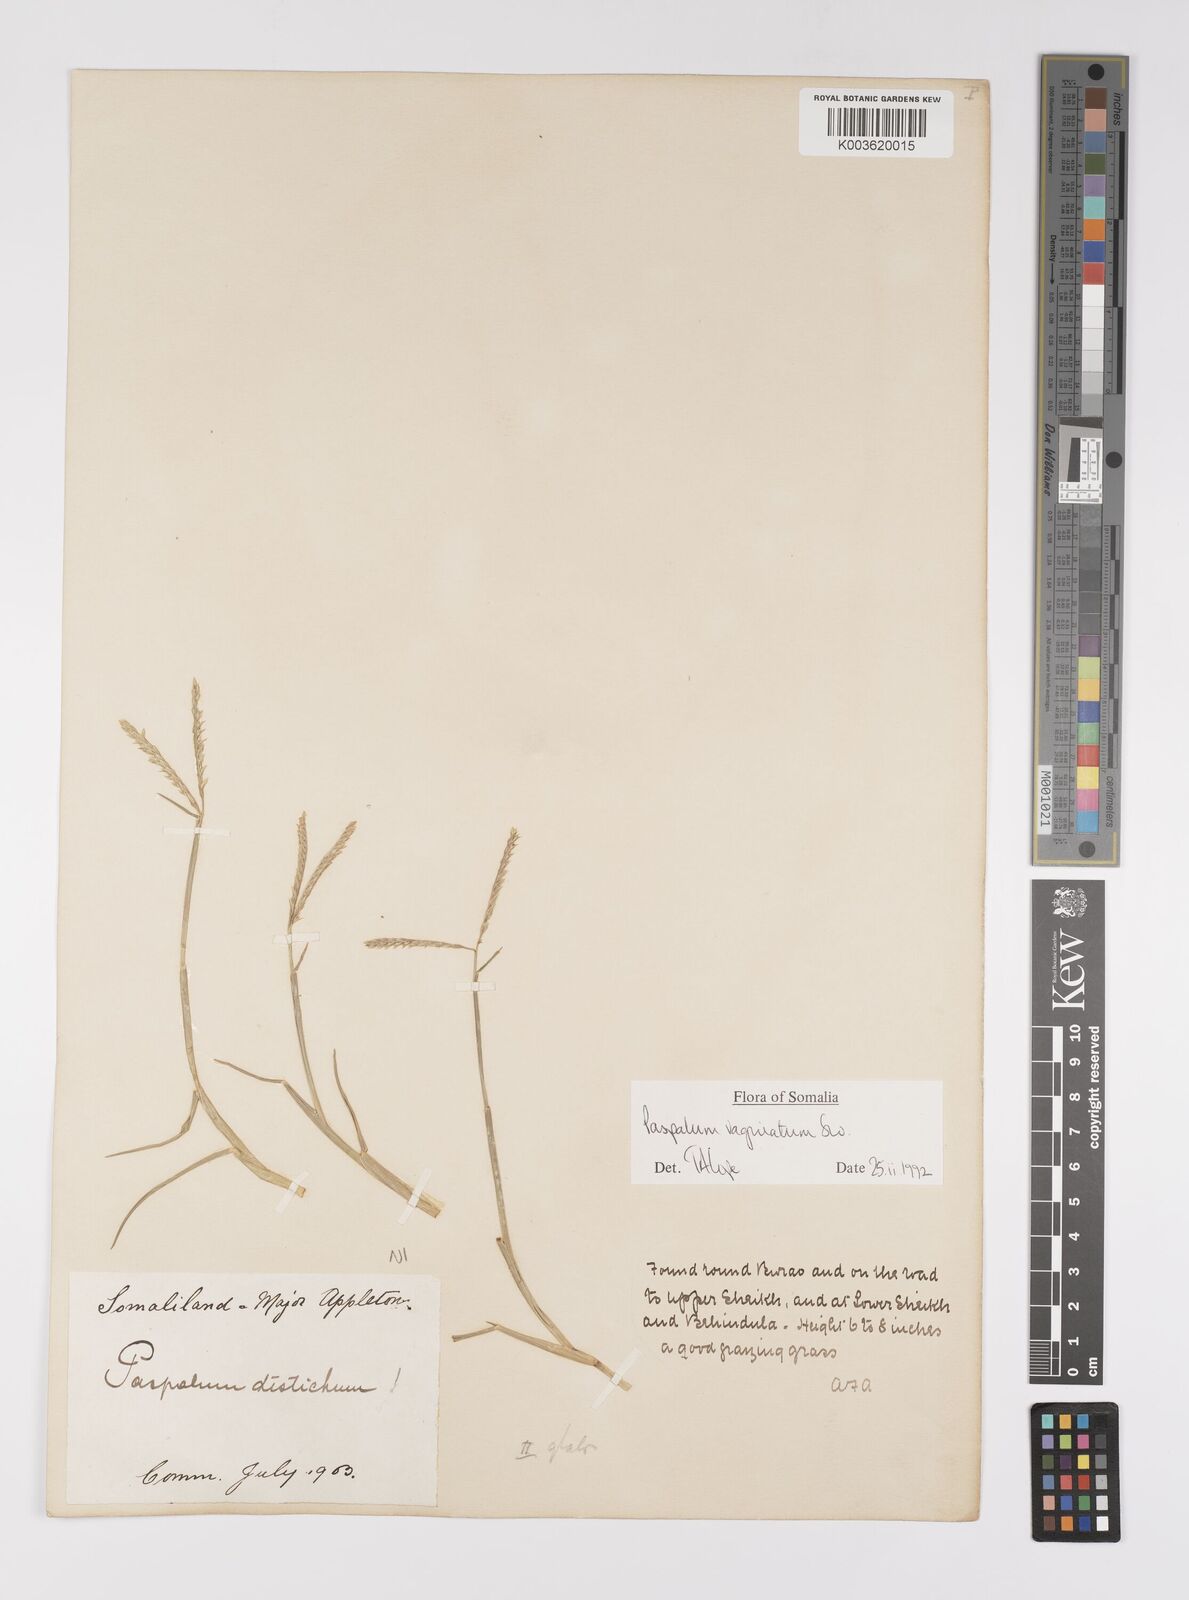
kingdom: Plantae
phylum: Tracheophyta
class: Liliopsida
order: Poales
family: Poaceae
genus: Paspalum
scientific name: Paspalum decumbens
